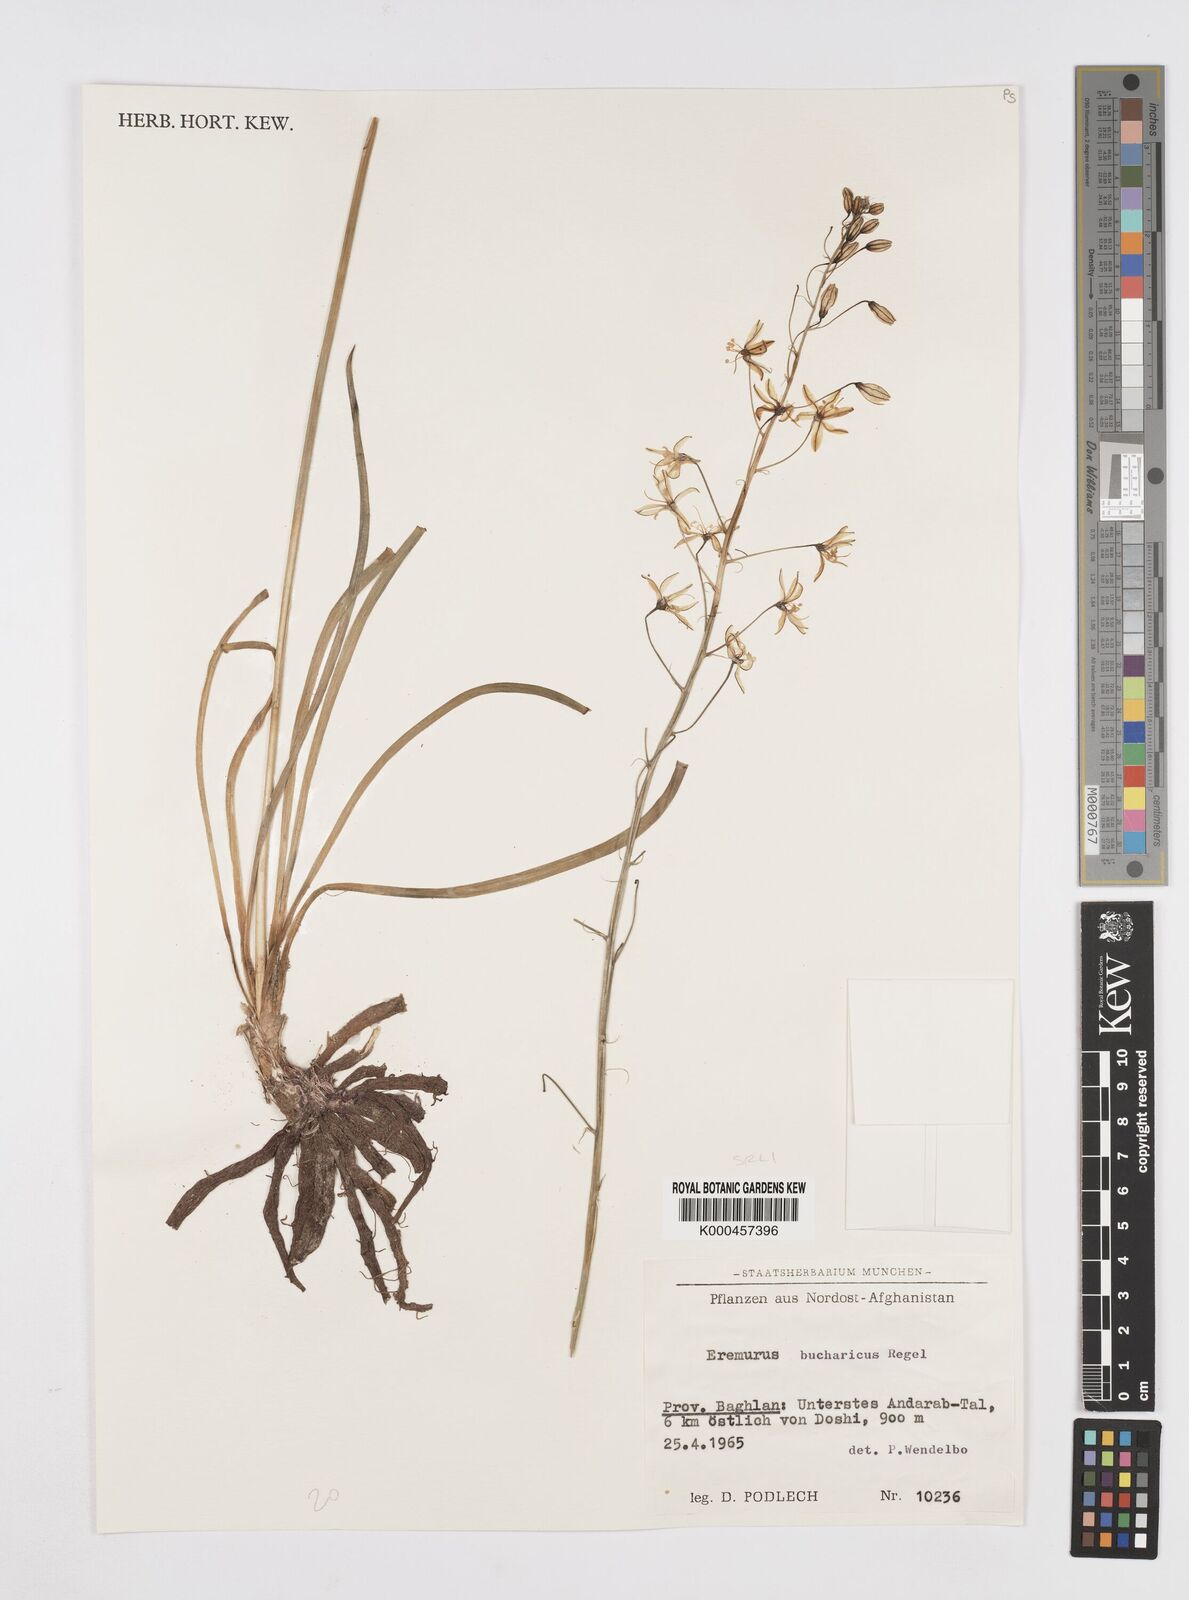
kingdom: Plantae
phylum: Tracheophyta
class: Liliopsida
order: Asparagales
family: Asphodelaceae
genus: Eremurus
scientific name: Eremurus bucharicus
